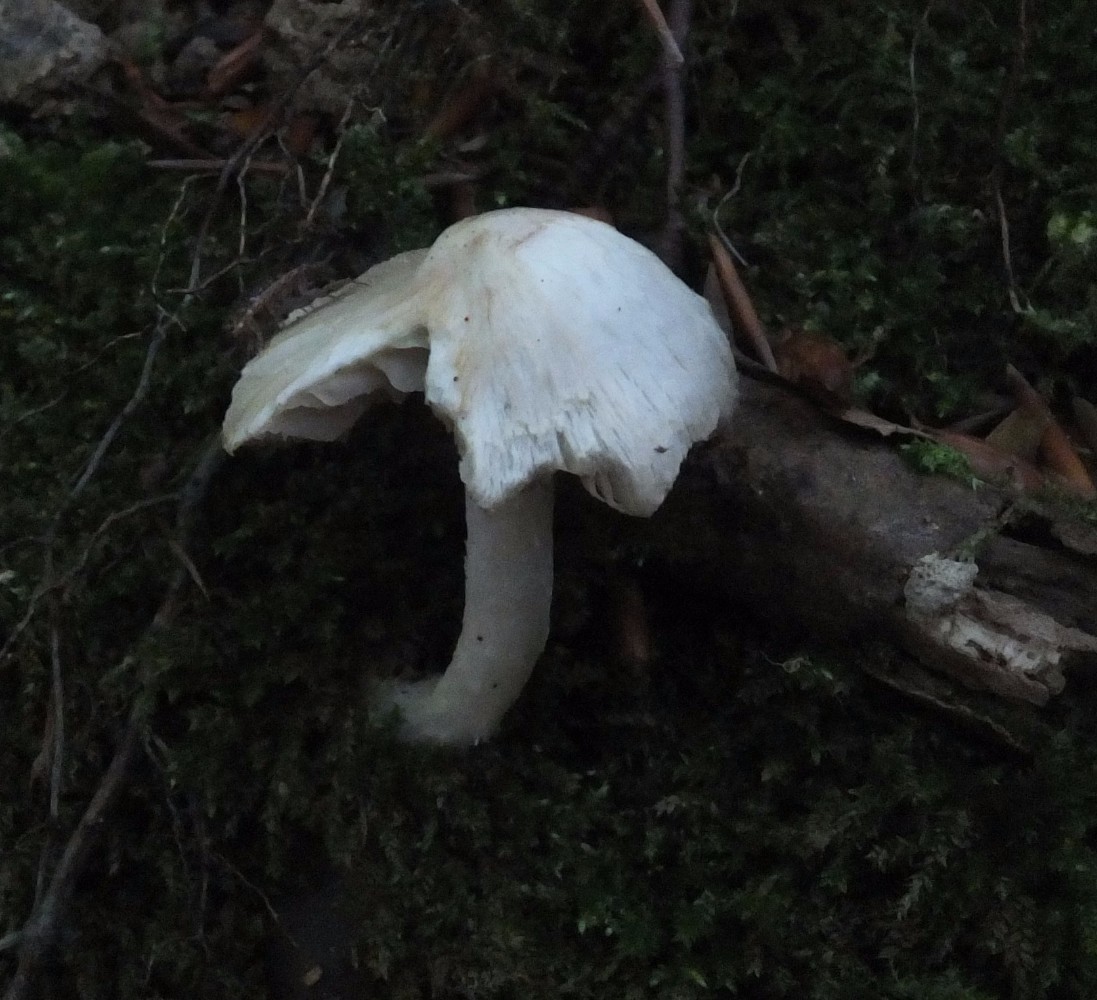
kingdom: Fungi
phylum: Basidiomycota
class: Agaricomycetes
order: Agaricales
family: Inocybaceae
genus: Inocybe
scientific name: Inocybe
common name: trævlhat
